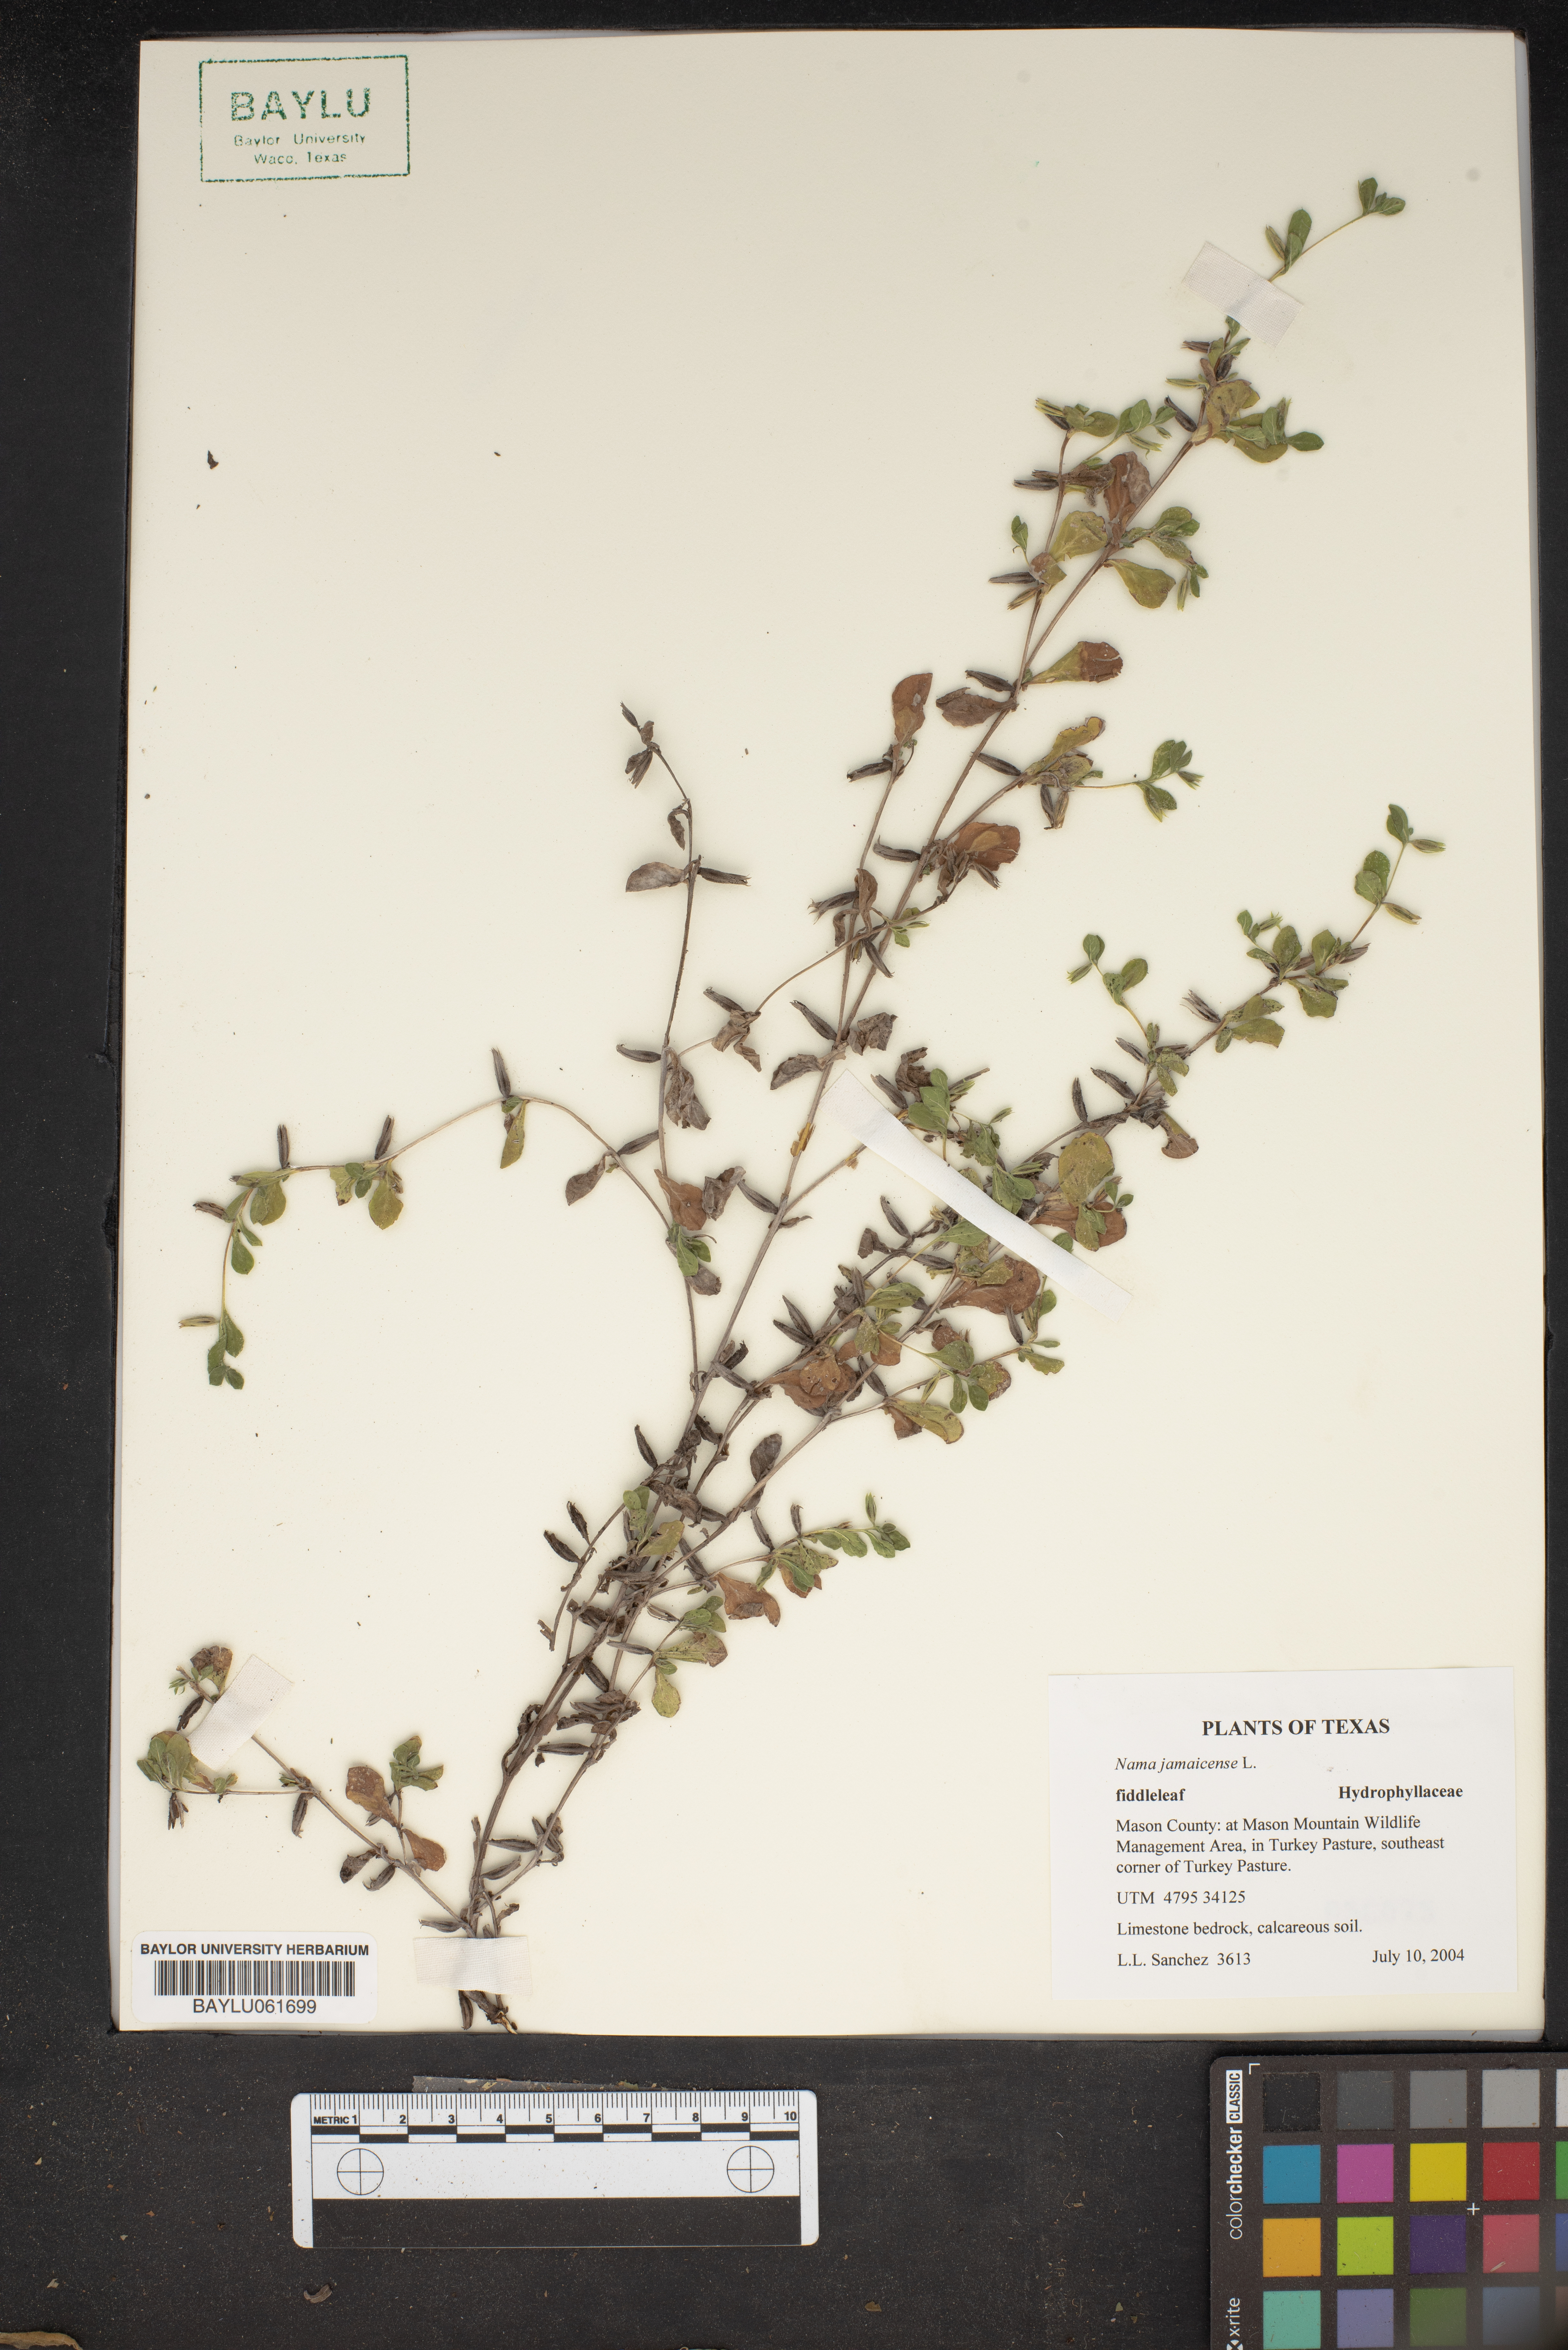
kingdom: Plantae
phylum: Tracheophyta
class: Magnoliopsida
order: Boraginales
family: Namaceae
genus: Nama
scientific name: Nama jamaicense
